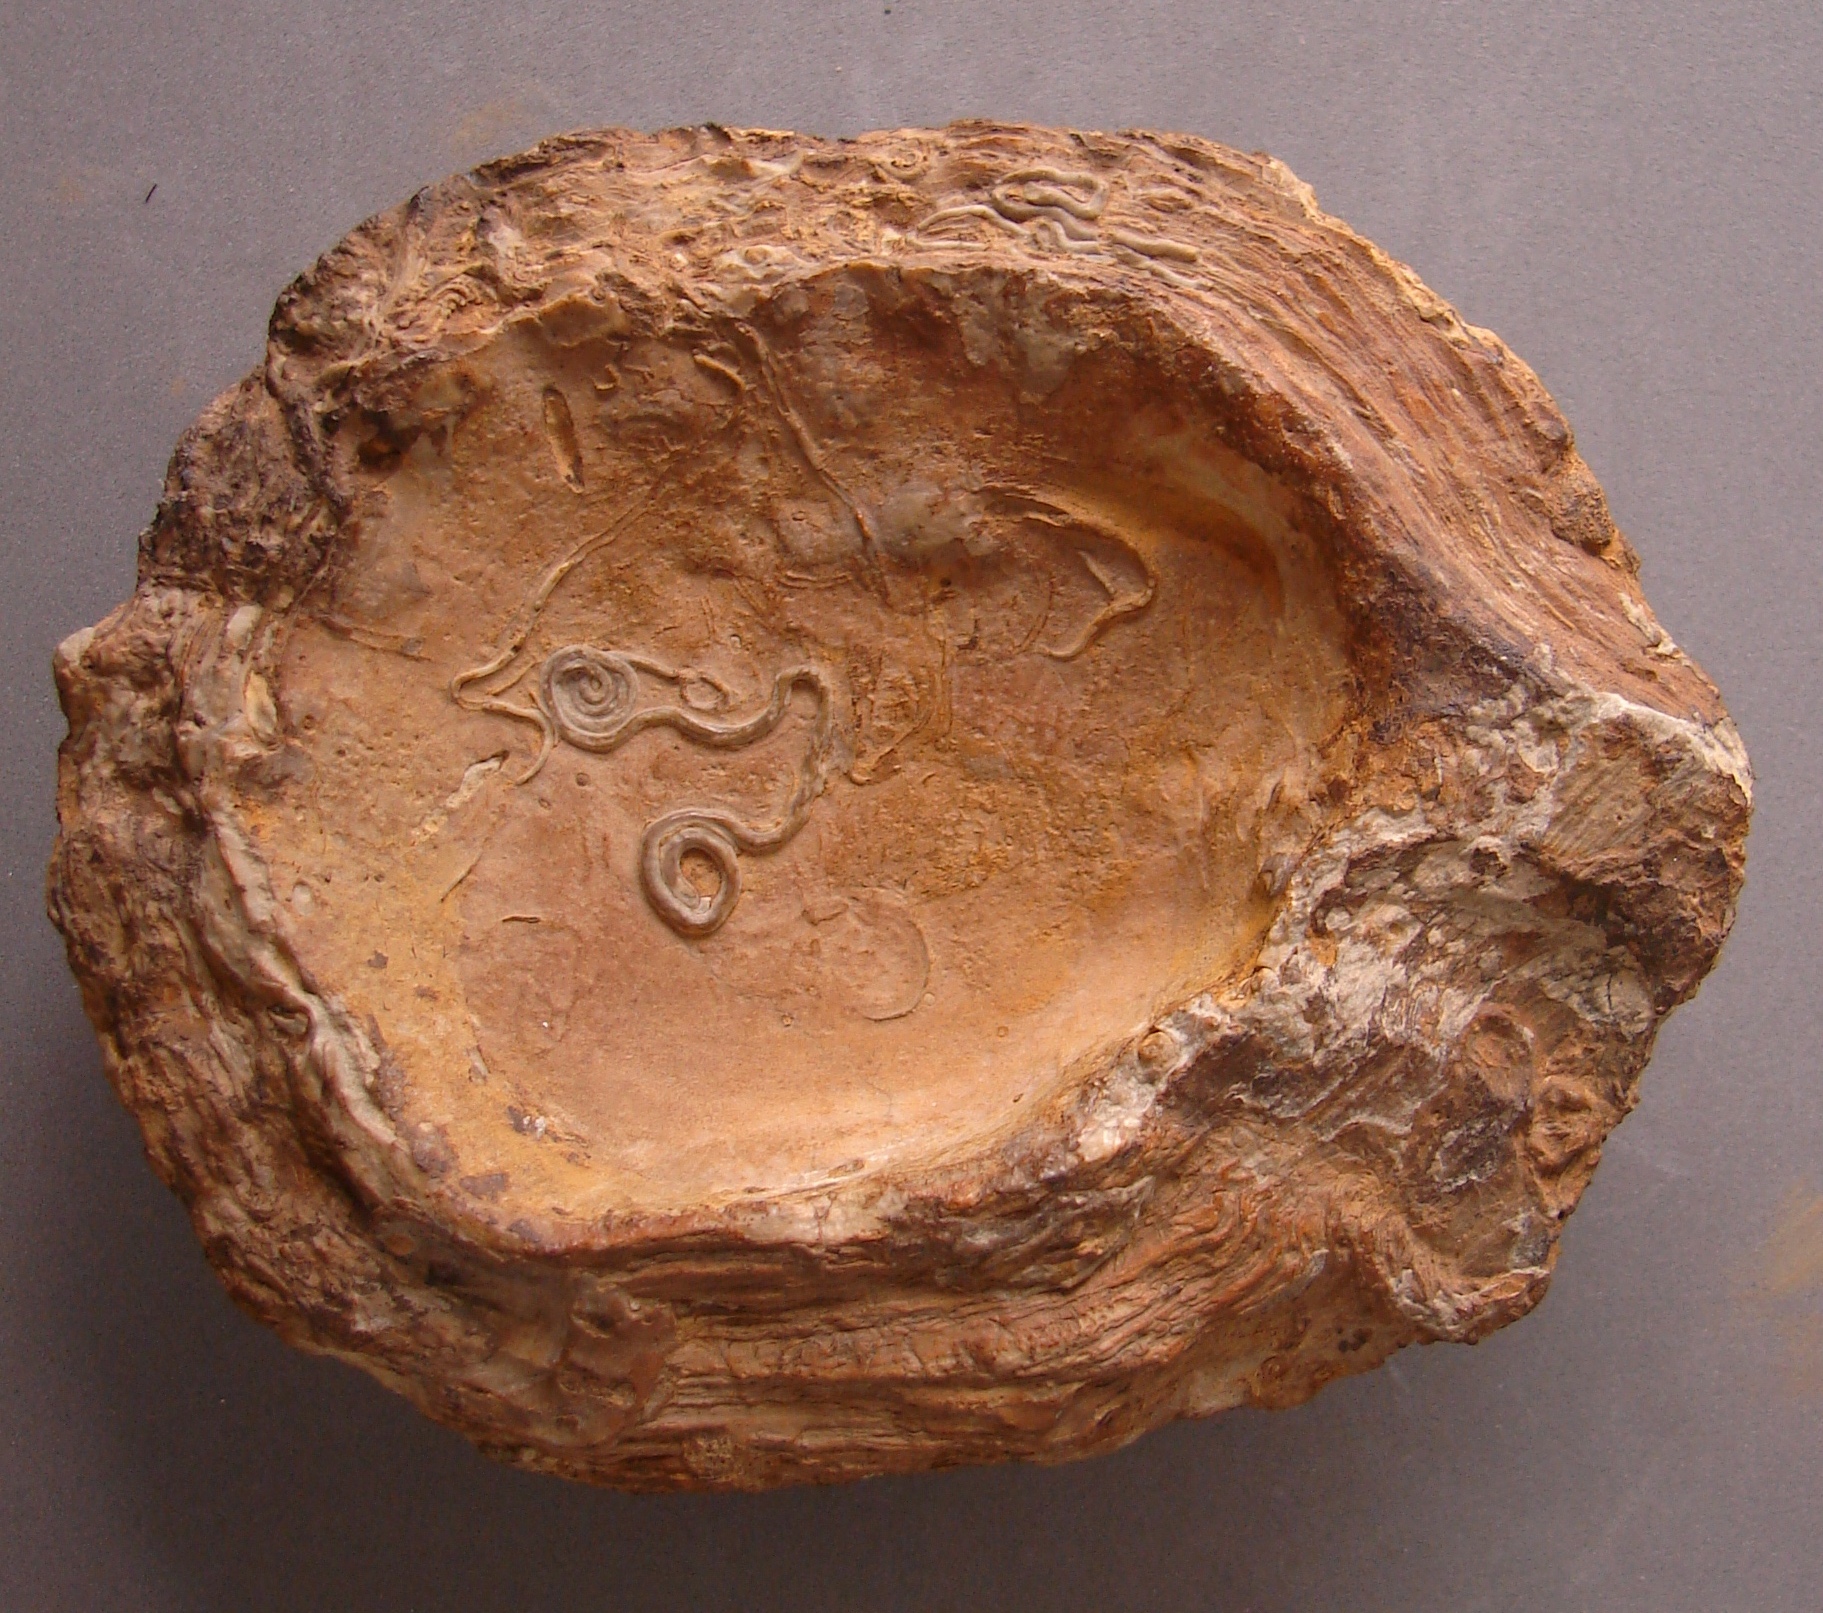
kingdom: Animalia
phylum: Mollusca
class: Bivalvia
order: Limida
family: Limidae
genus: Ctenostreon
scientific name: Ctenostreon
